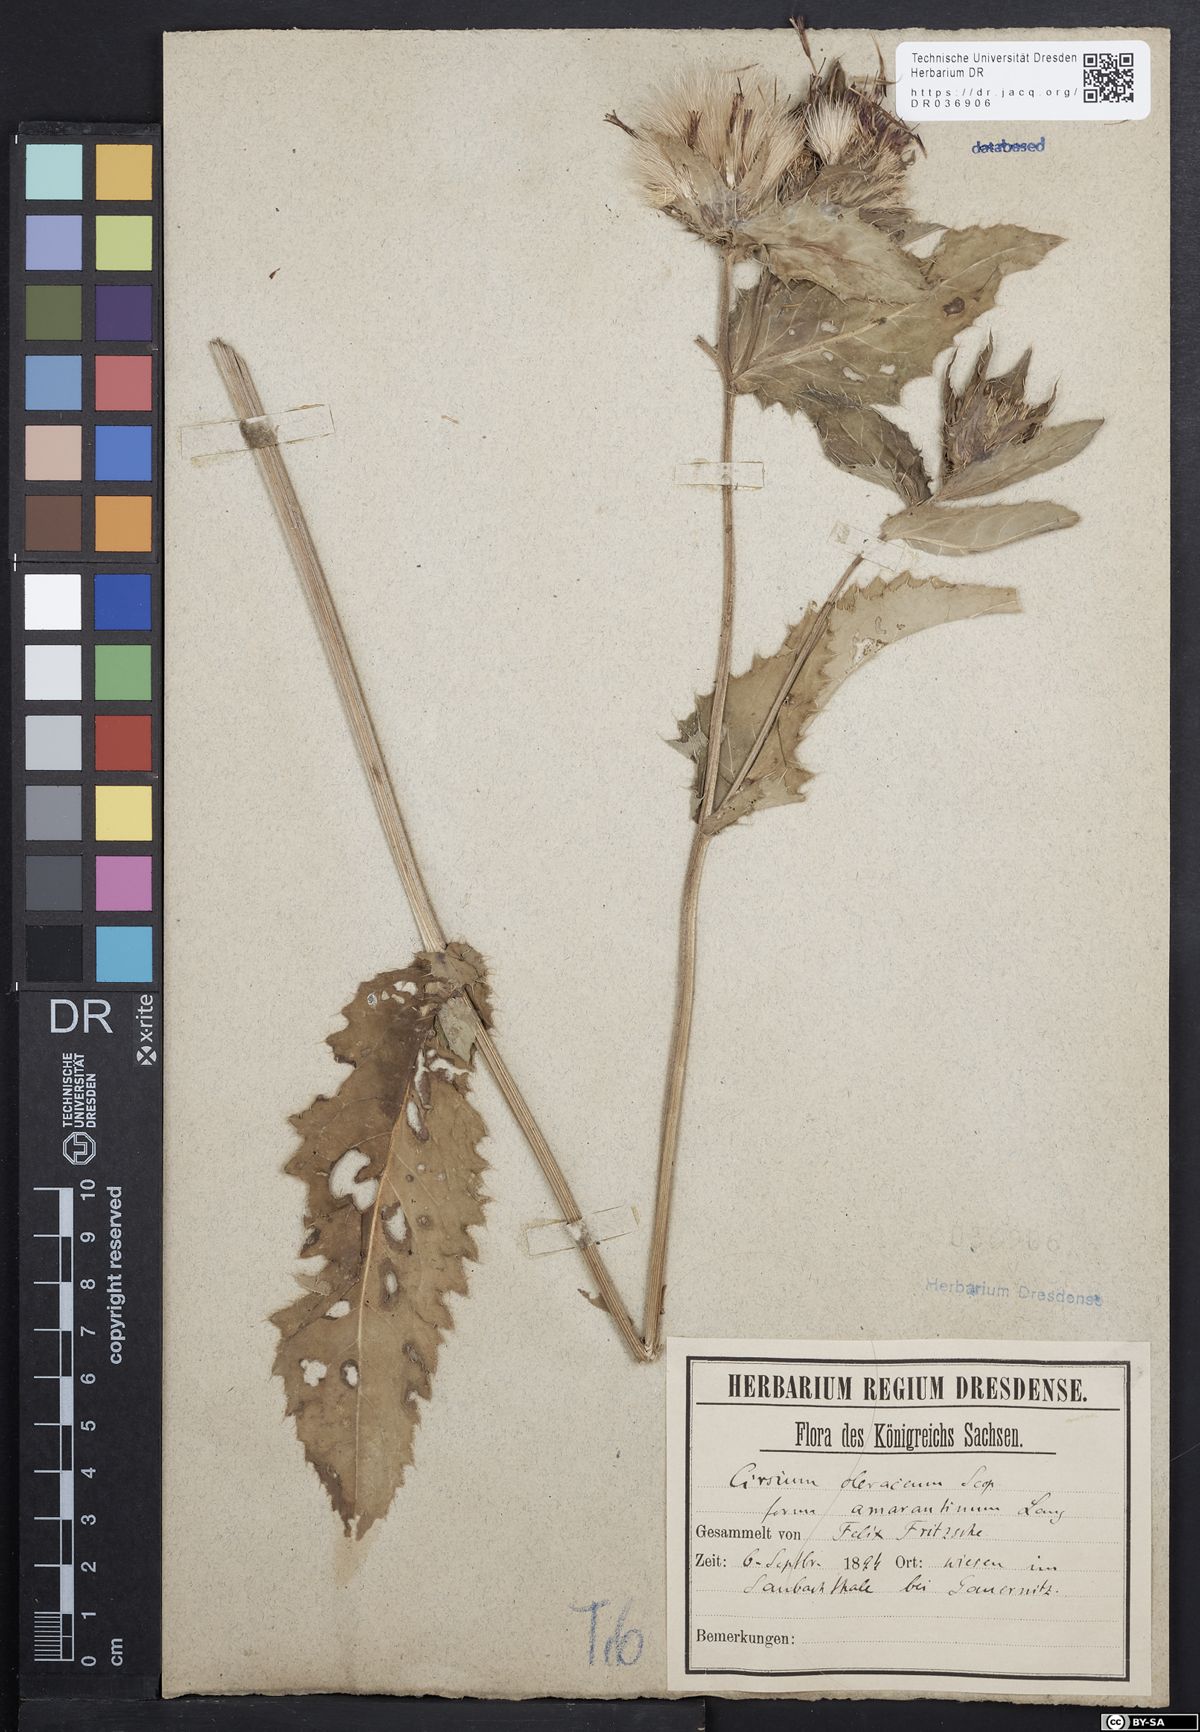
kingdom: Plantae
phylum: Tracheophyta
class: Magnoliopsida
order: Asterales
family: Asteraceae
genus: Cirsium
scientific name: Cirsium oleraceum
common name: Cabbage thistle
